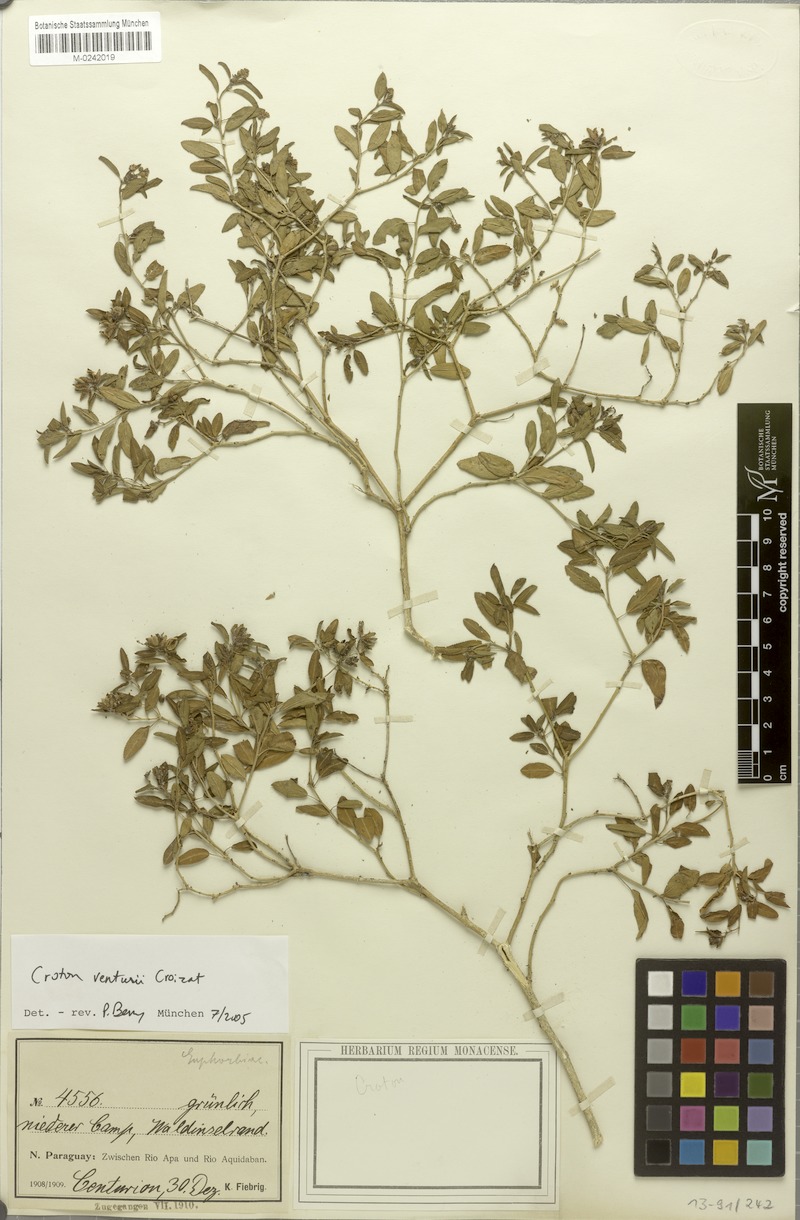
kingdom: Plantae
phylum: Tracheophyta
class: Magnoliopsida
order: Malpighiales
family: Euphorbiaceae
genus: Croton
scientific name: Croton venturii
